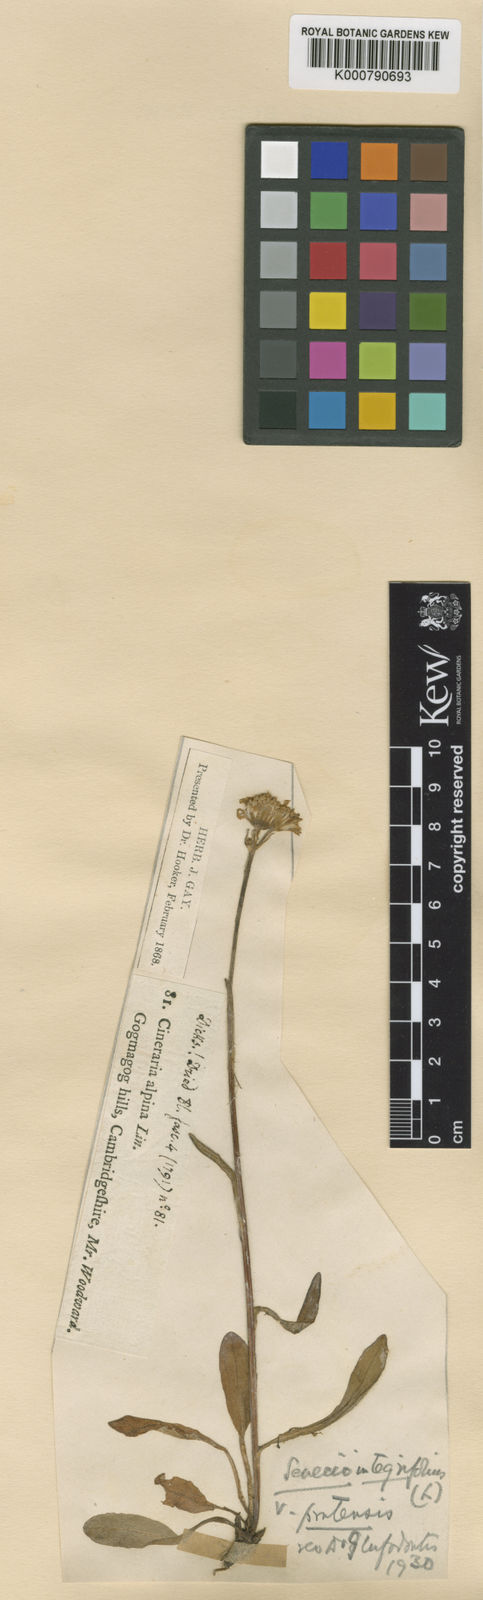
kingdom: Plantae
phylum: Tracheophyta
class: Magnoliopsida
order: Asterales
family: Asteraceae
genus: Tephroseris
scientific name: Tephroseris integrifolia
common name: Field fleawort
